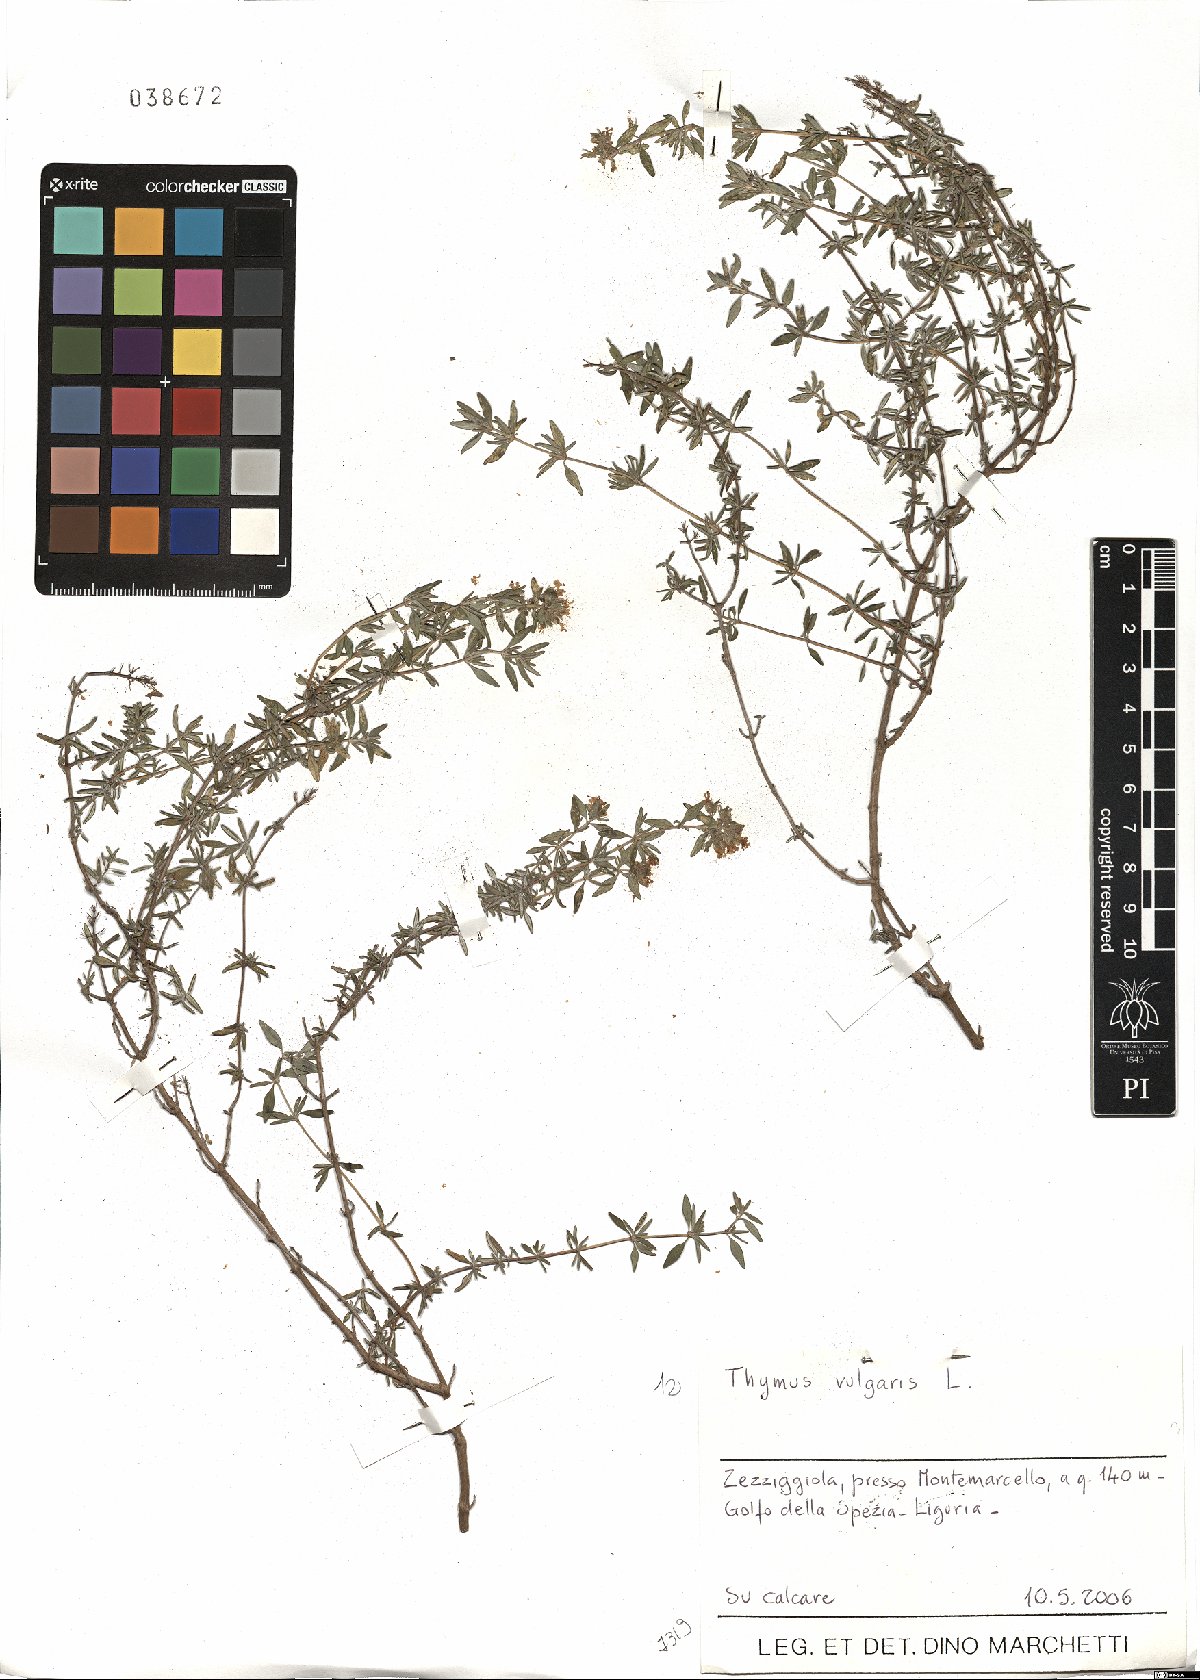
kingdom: Plantae
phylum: Tracheophyta
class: Magnoliopsida
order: Lamiales
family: Lamiaceae
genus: Thymus
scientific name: Thymus vulgaris
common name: Garden thyme
